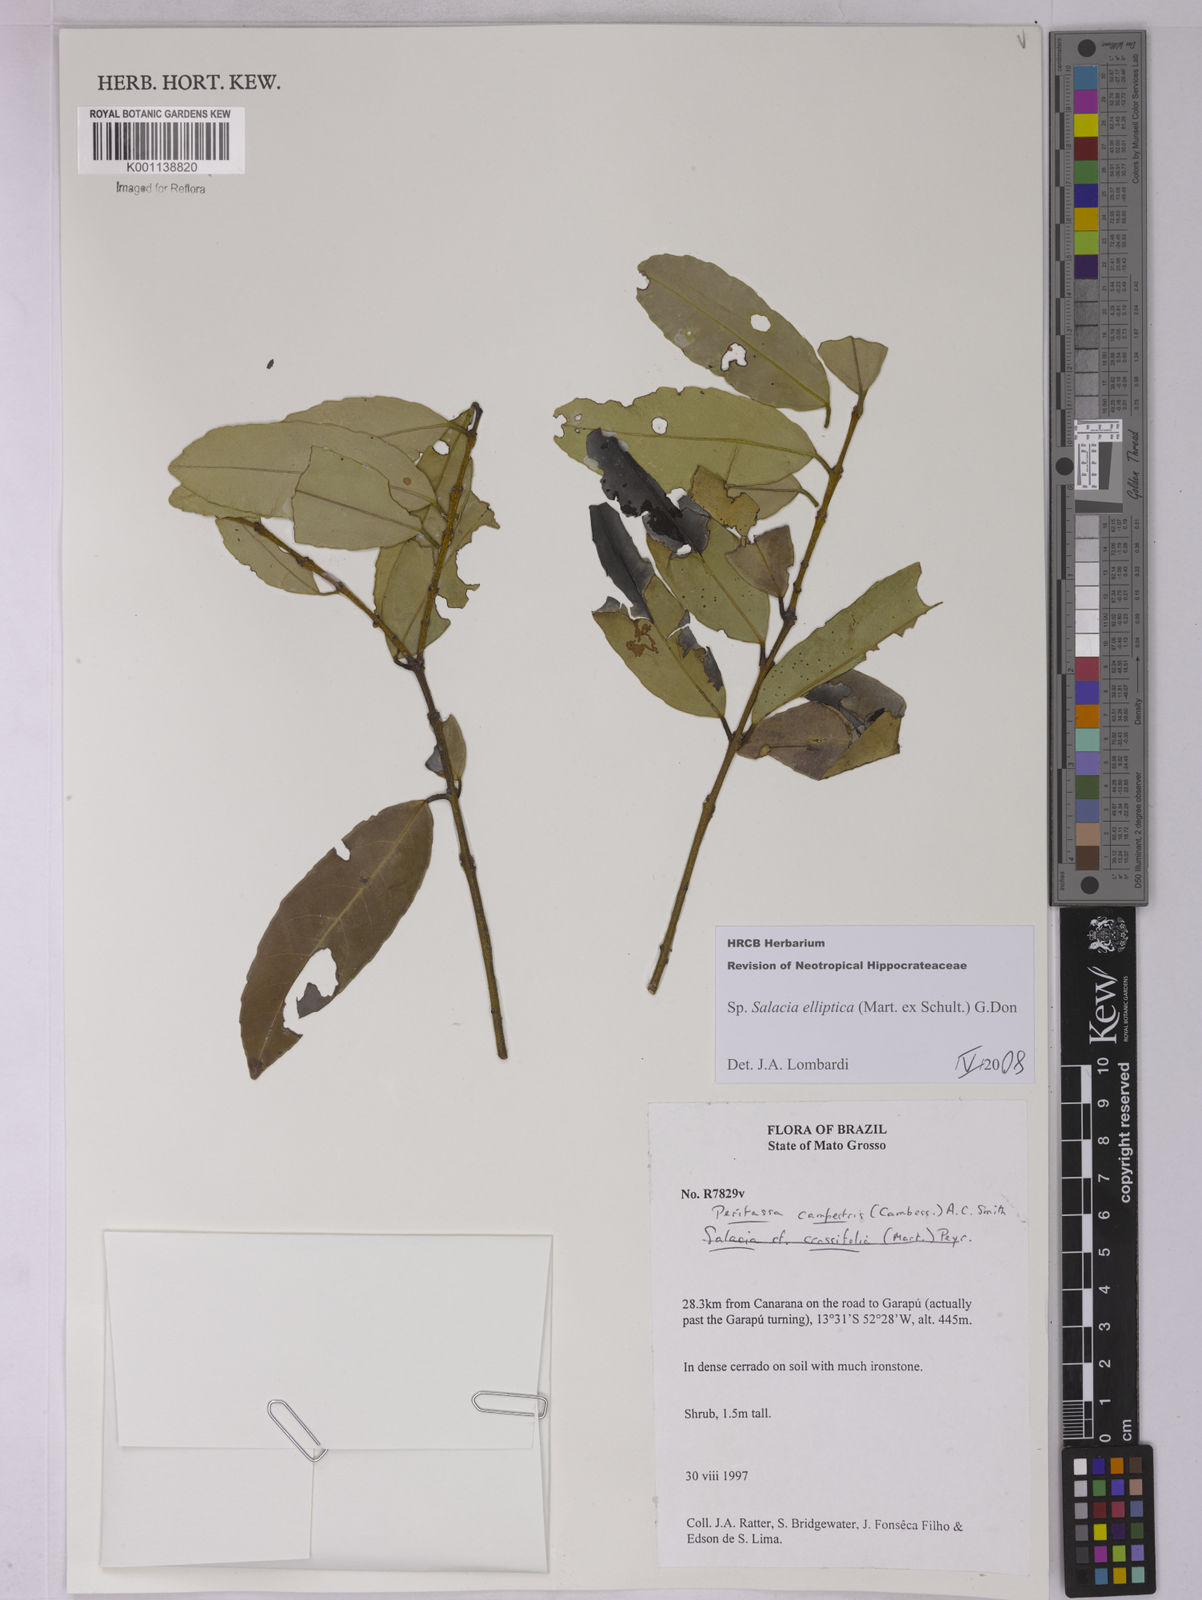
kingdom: Plantae
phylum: Tracheophyta
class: Magnoliopsida
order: Celastrales
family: Celastraceae
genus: Salacia
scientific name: Salacia elliptica
